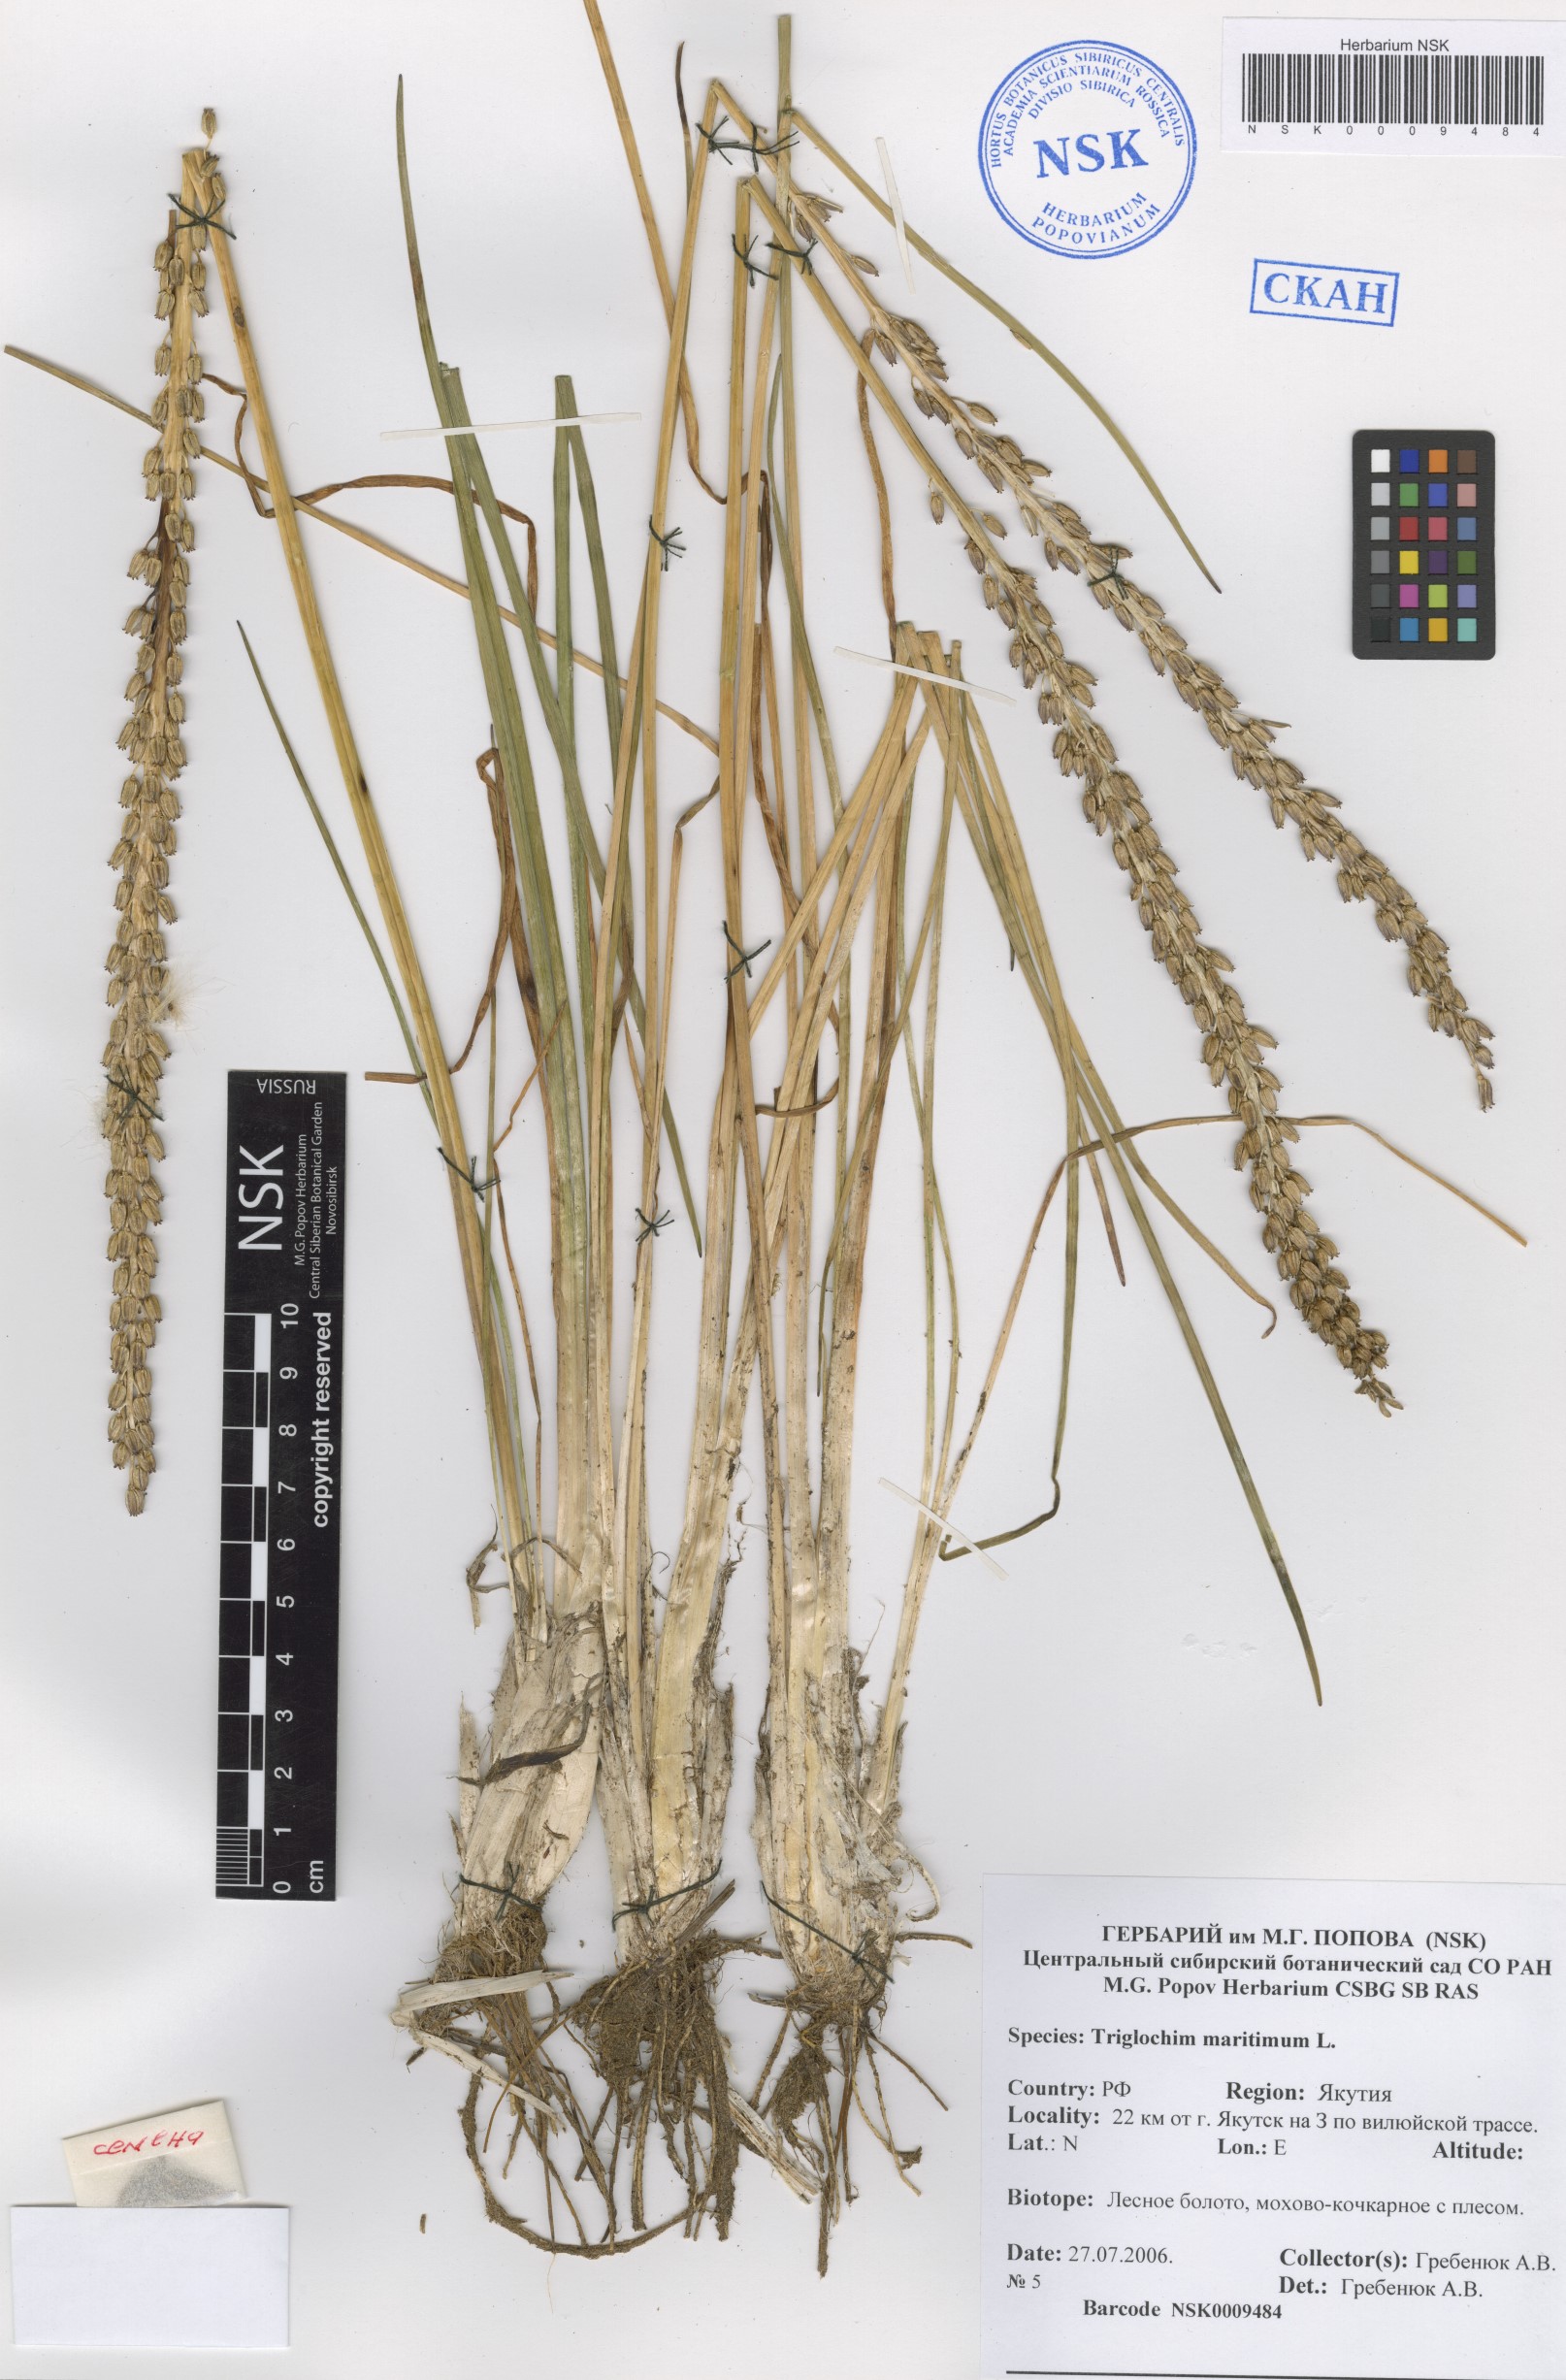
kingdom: Plantae
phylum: Tracheophyta
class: Liliopsida
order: Alismatales
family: Juncaginaceae
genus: Triglochin
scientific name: Triglochin maritima
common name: Sea arrowgrass
